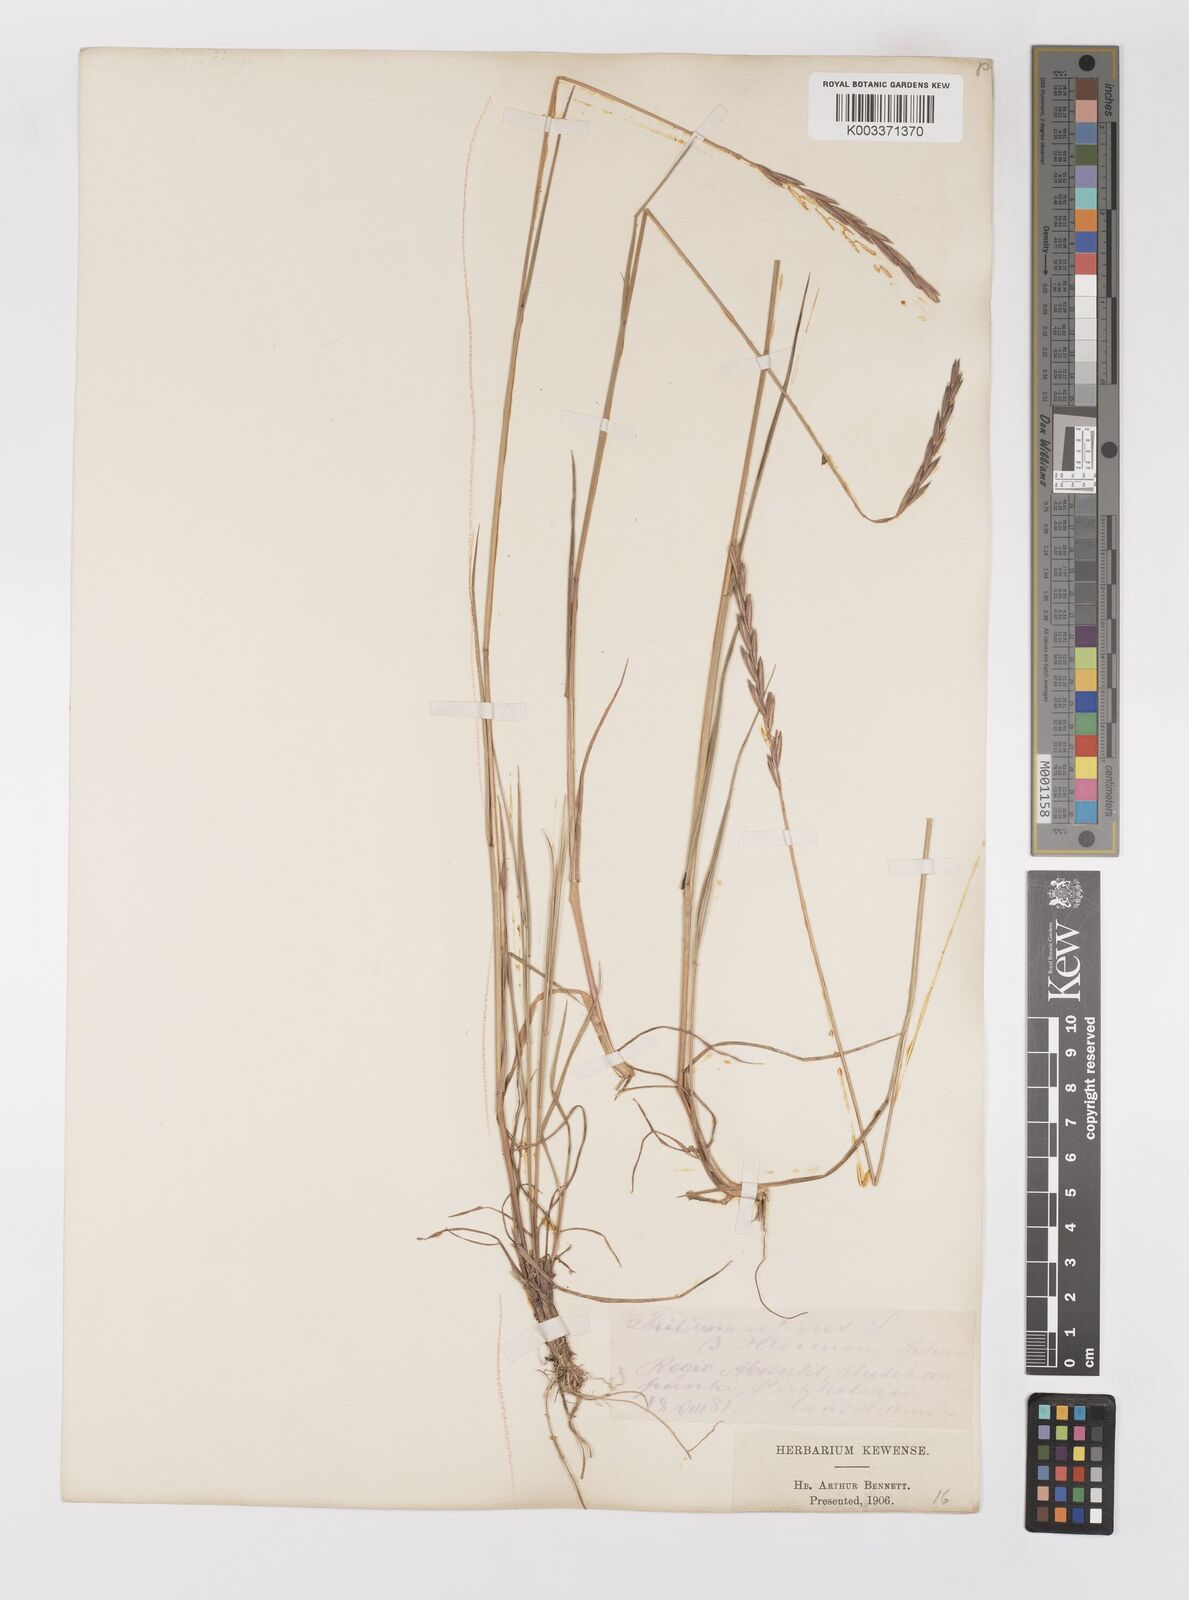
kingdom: Plantae
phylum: Tracheophyta
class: Liliopsida
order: Poales
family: Poaceae
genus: Elymus
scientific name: Elymus repens
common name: Quackgrass
